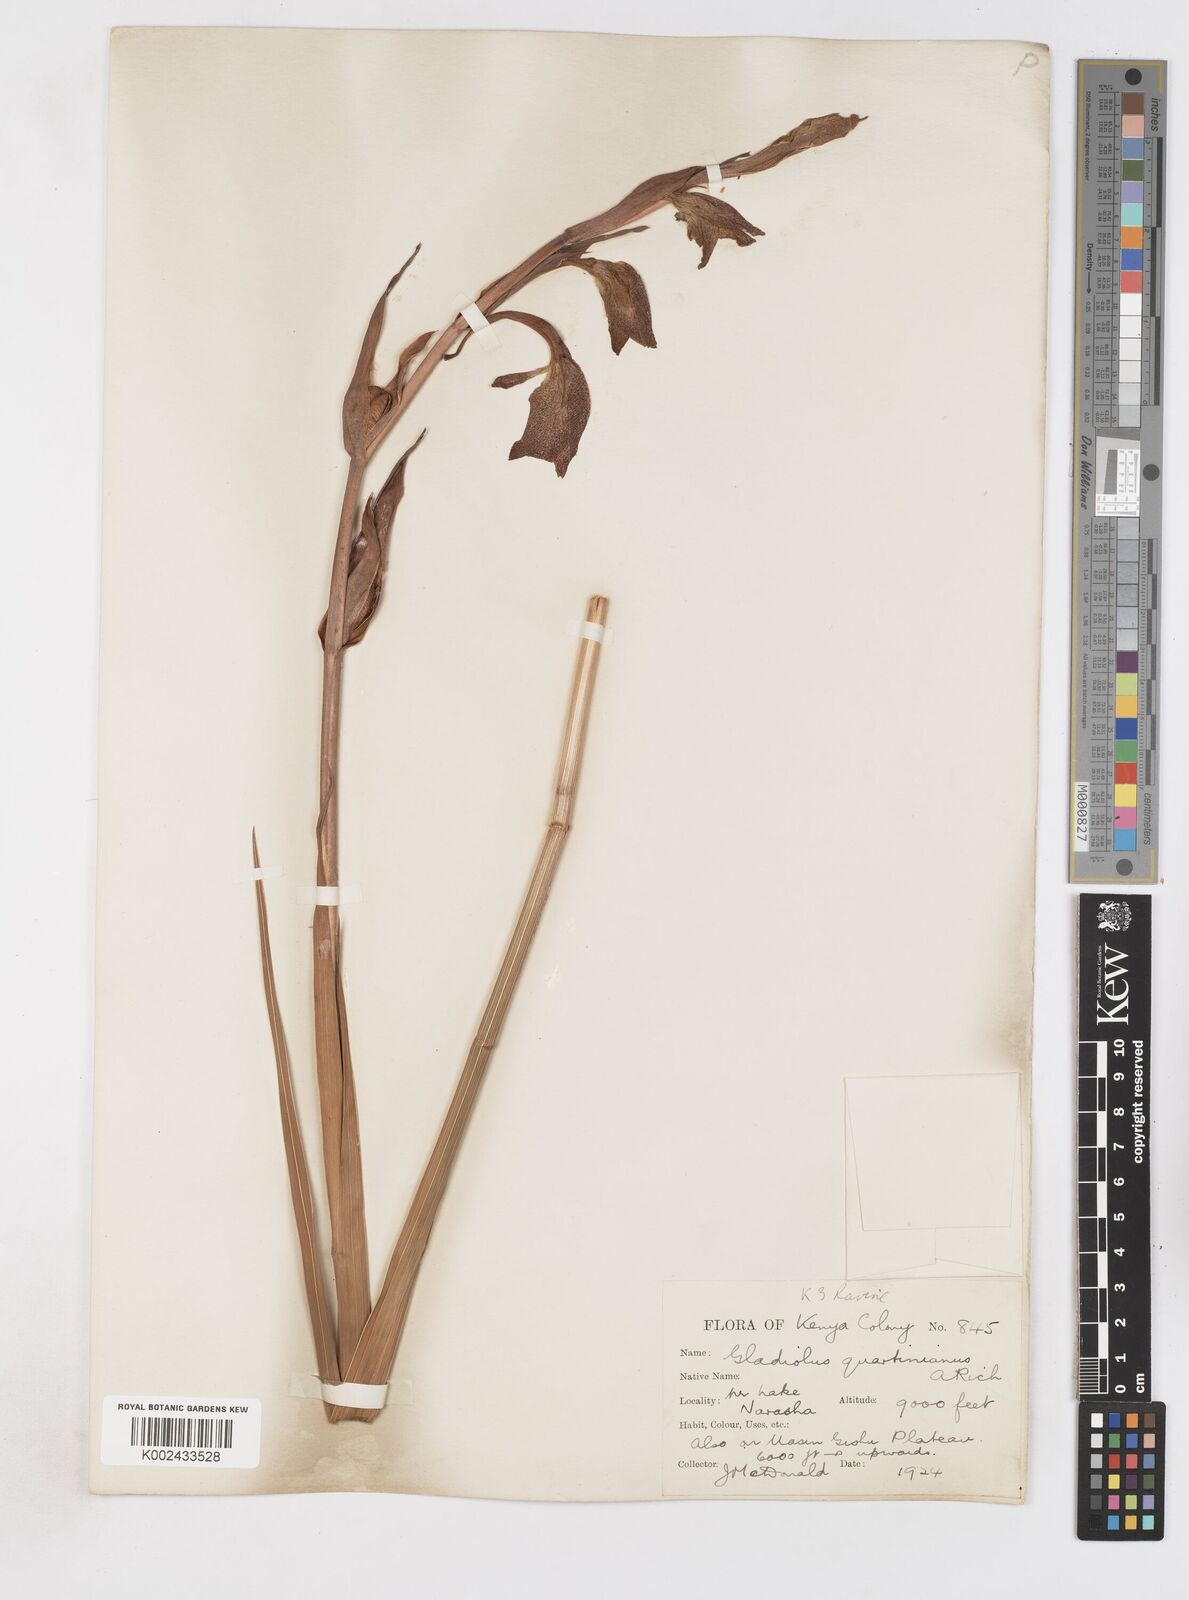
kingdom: Plantae
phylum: Tracheophyta
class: Liliopsida
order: Asparagales
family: Iridaceae
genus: Gladiolus
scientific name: Gladiolus dalenii
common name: Cornflag
